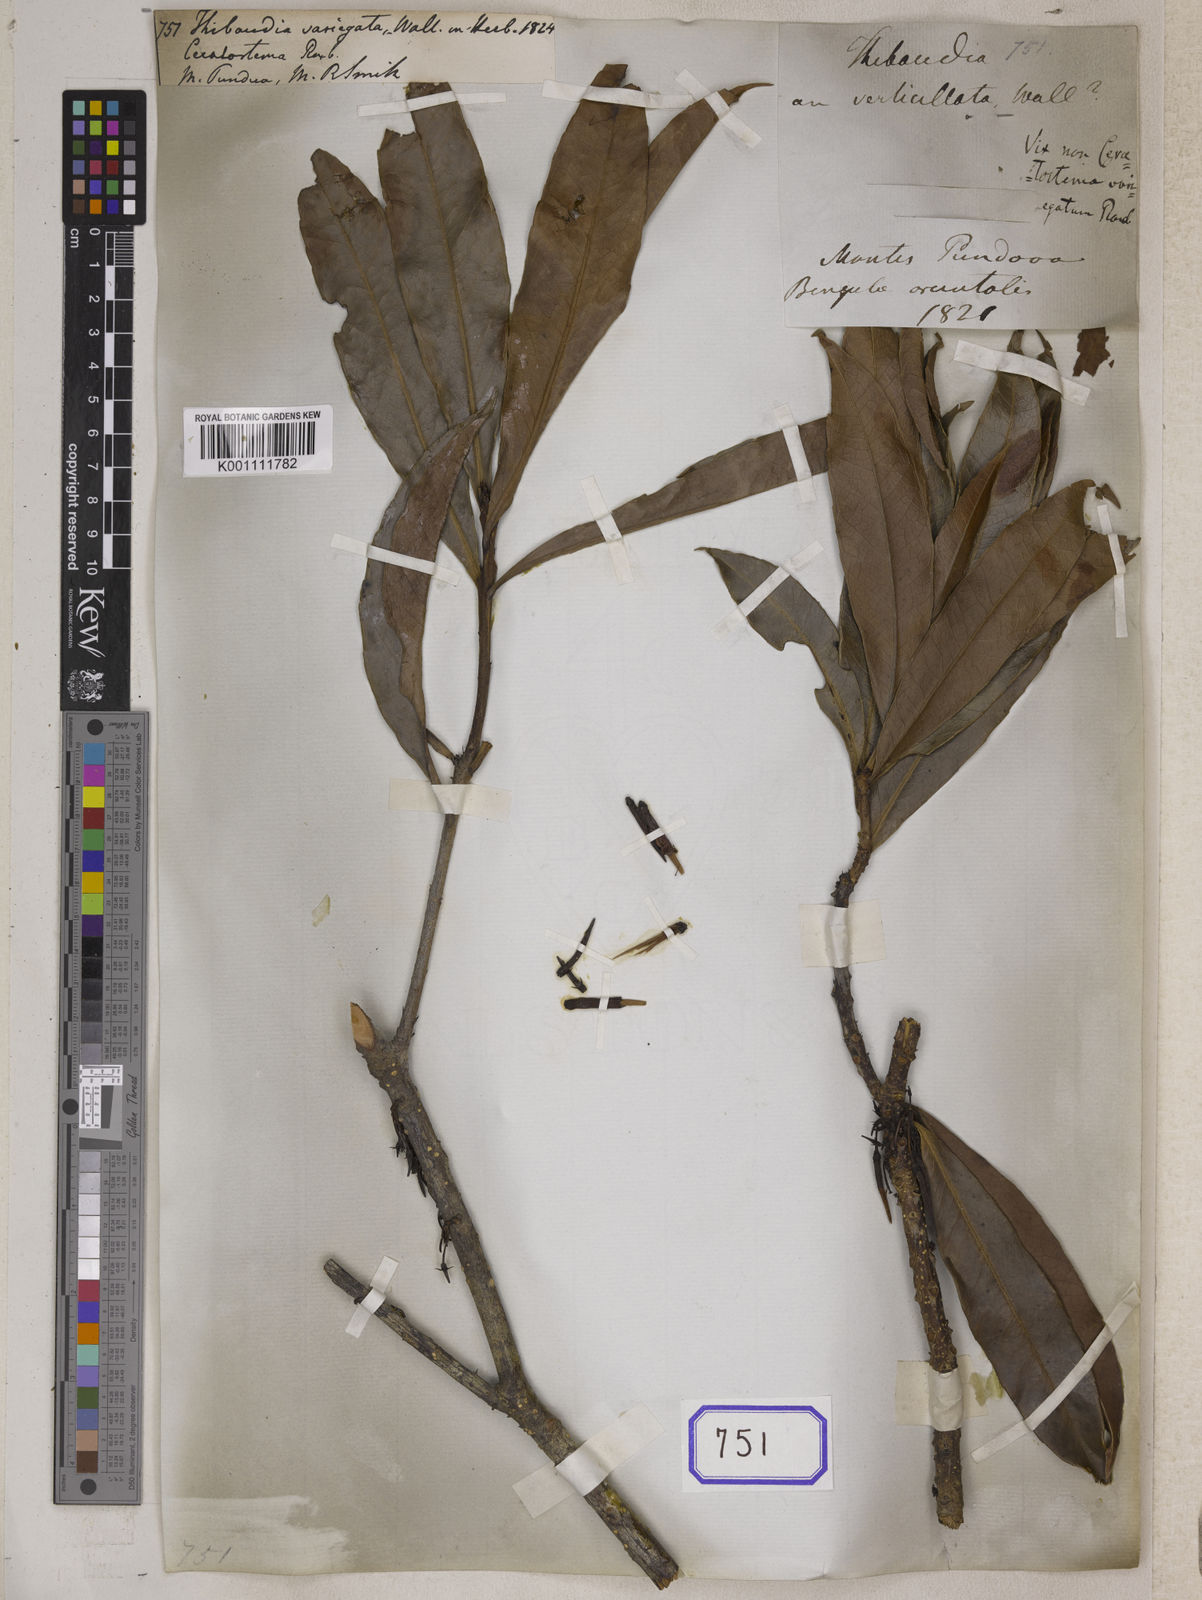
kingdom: Plantae
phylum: Tracheophyta
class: Magnoliopsida
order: Ericales
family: Ericaceae
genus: Thibaudia
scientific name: Thibaudia
